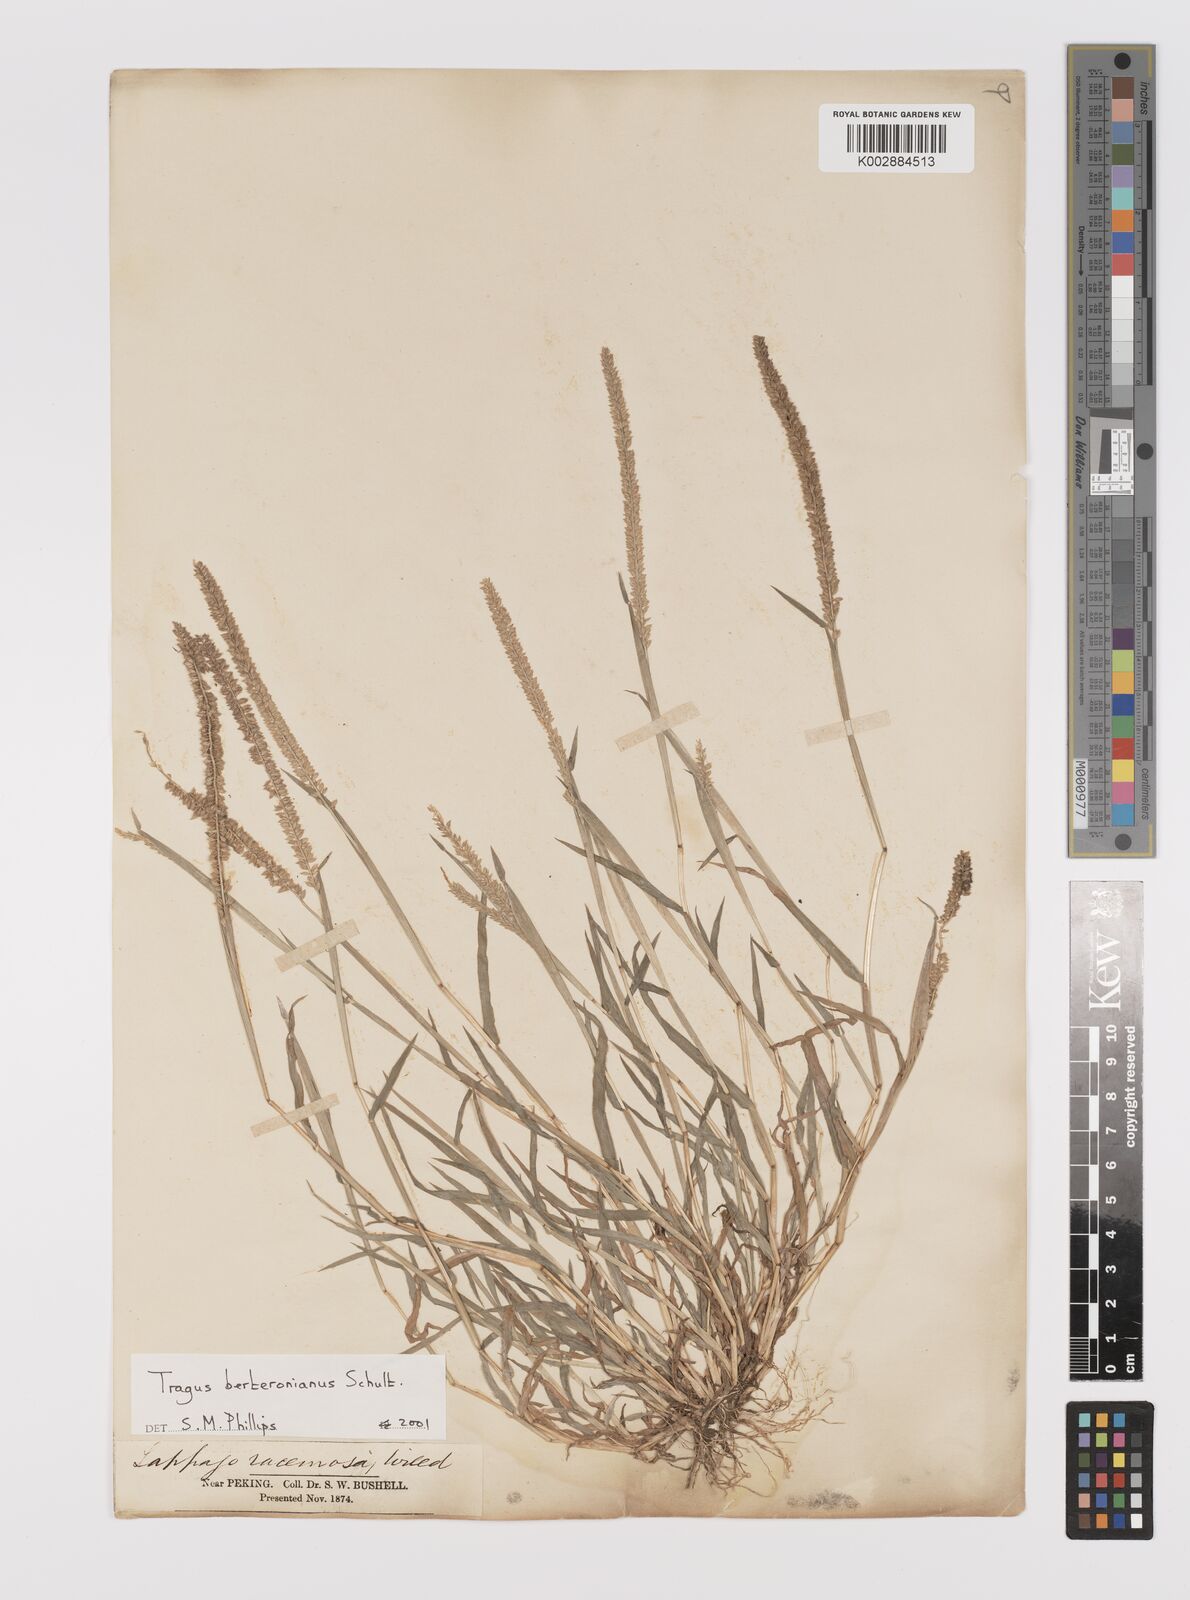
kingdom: Plantae
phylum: Tracheophyta
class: Liliopsida
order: Poales
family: Poaceae
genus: Tragus
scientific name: Tragus berteronianus
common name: African bur-grass
